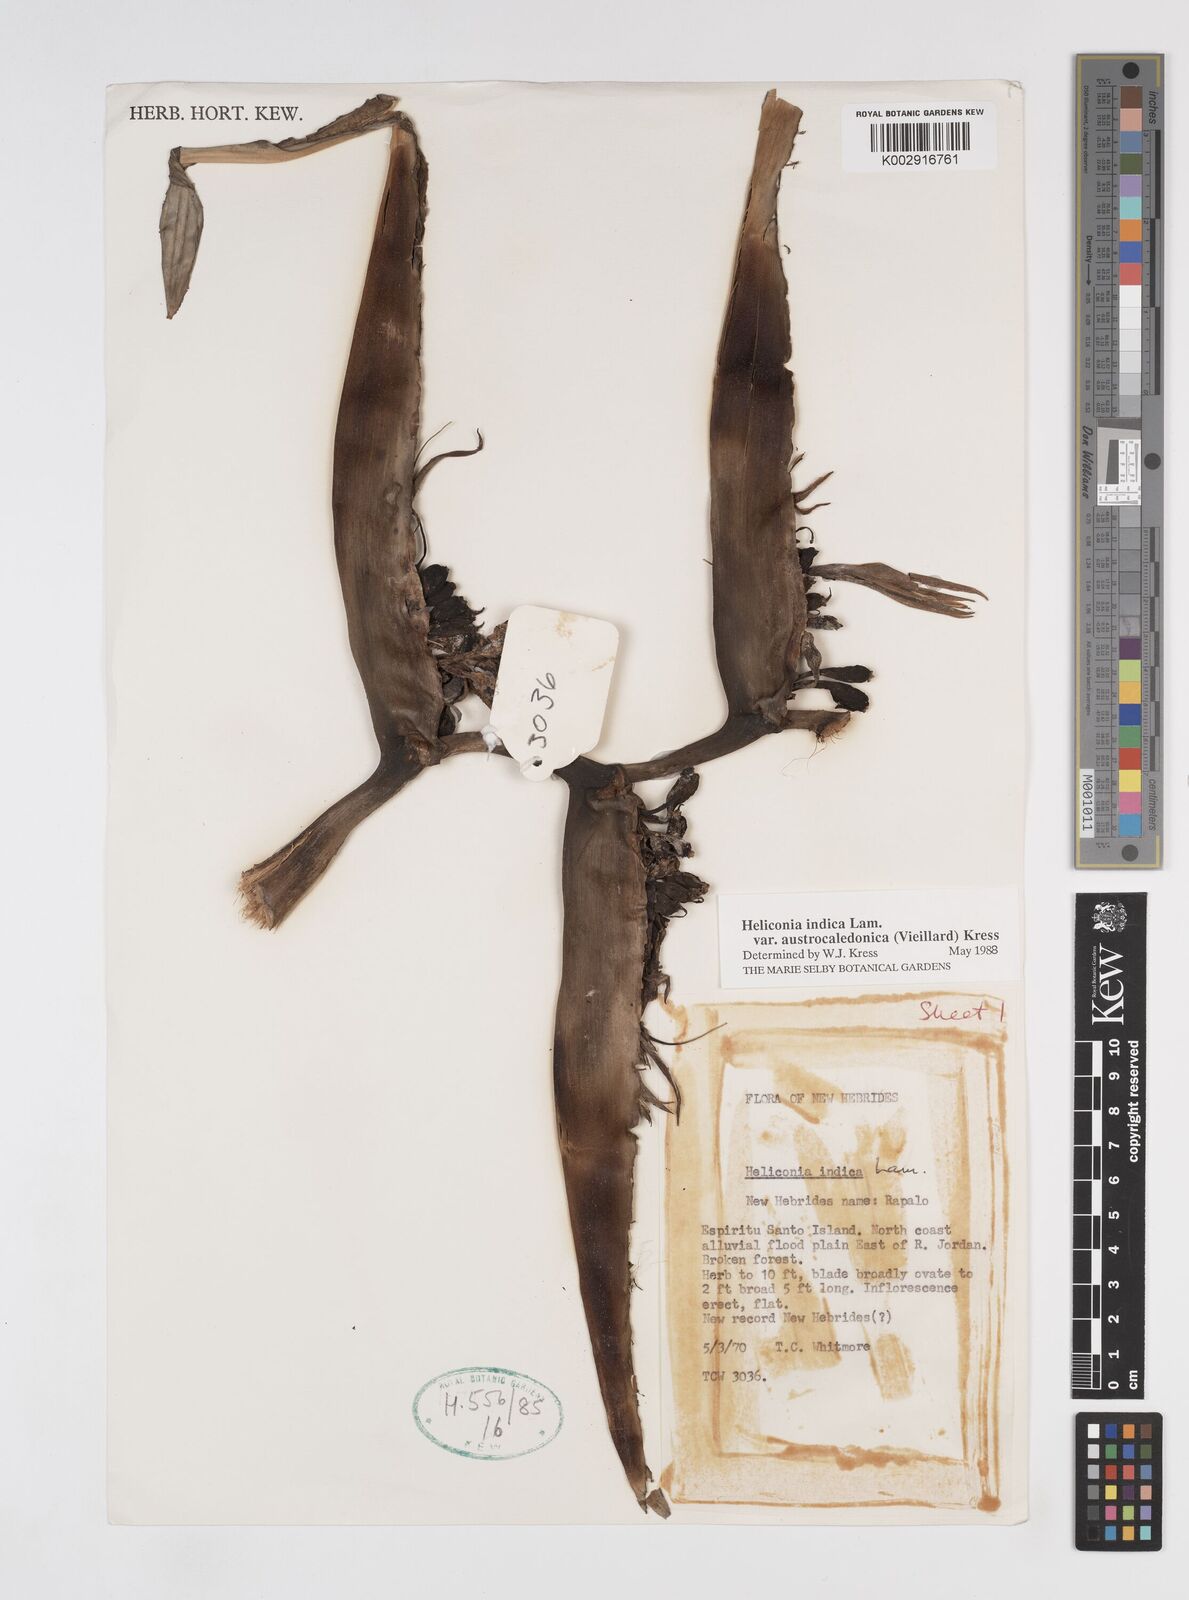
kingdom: Plantae
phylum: Tracheophyta
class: Liliopsida
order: Zingiberales
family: Heliconiaceae
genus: Heliconia
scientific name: Heliconia indica
